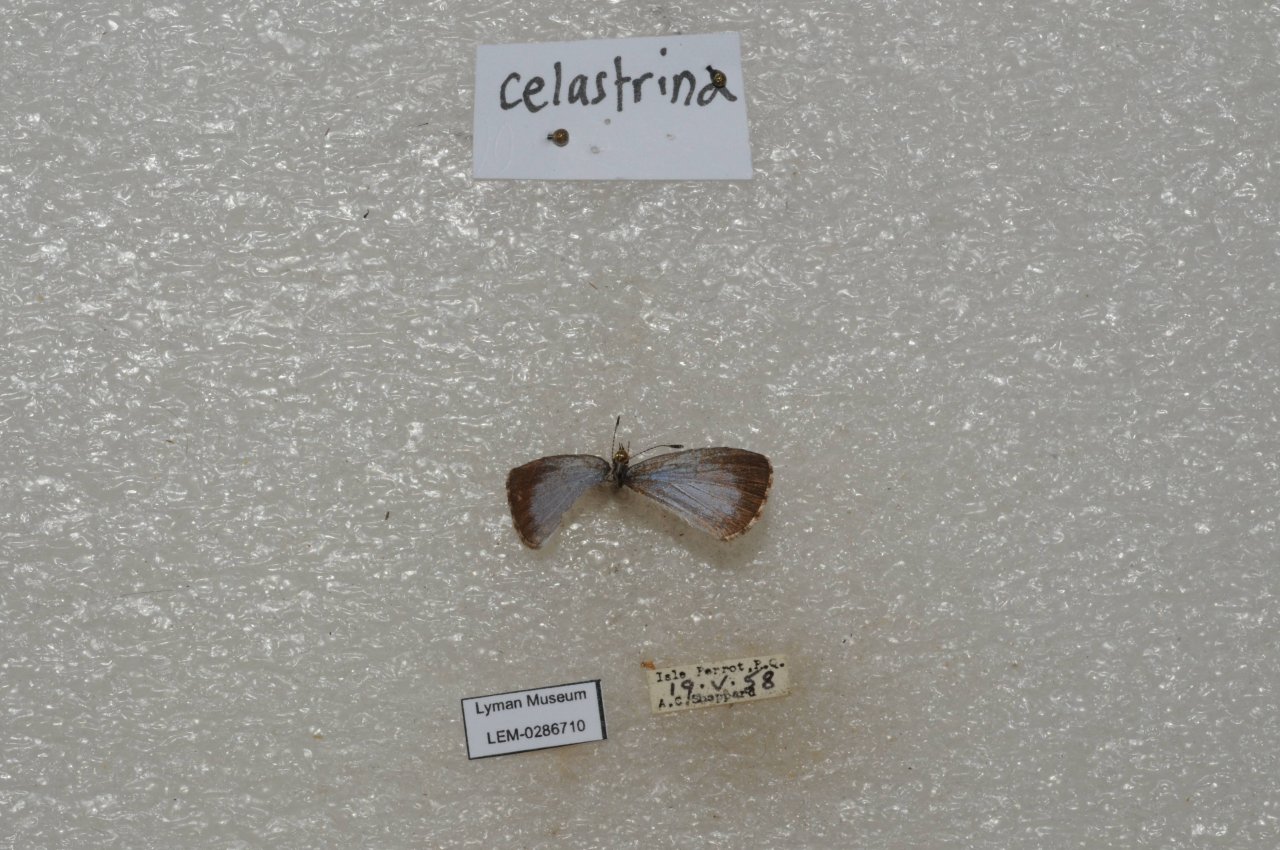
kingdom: Animalia
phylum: Arthropoda
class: Insecta
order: Lepidoptera
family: Lycaenidae
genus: Celastrina
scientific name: Celastrina lucia
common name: Northern Spring Azure
